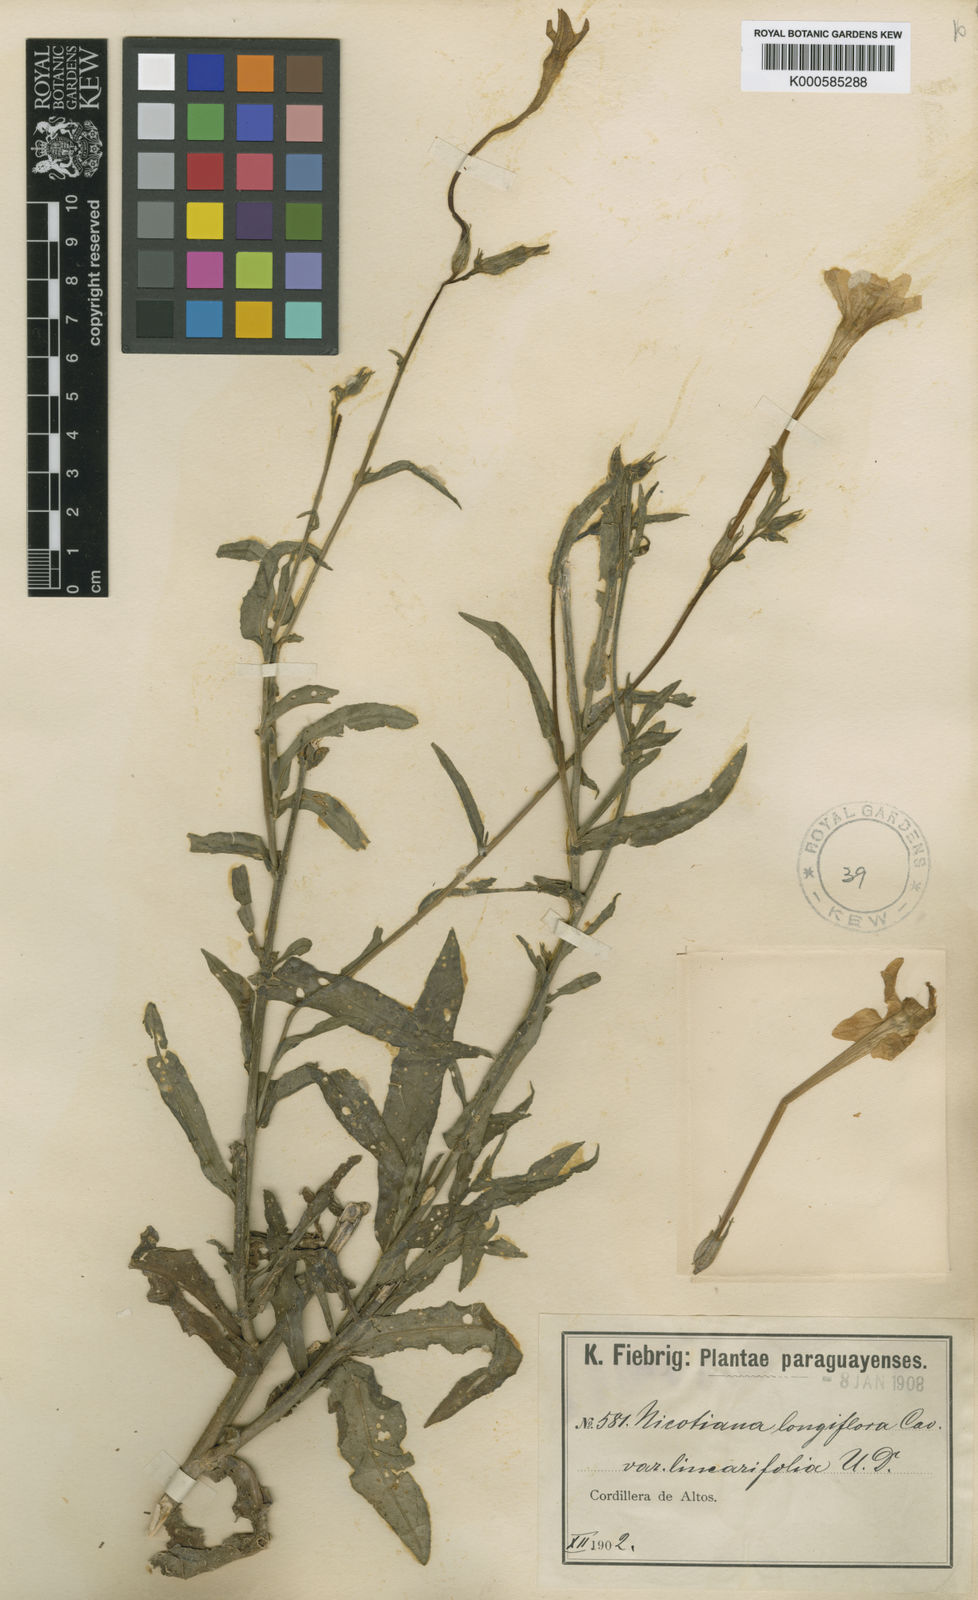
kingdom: Plantae
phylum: Tracheophyta
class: Magnoliopsida
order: Solanales
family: Solanaceae
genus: Nicotiana
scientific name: Nicotiana longiflora
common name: Long-flowered tobacco
